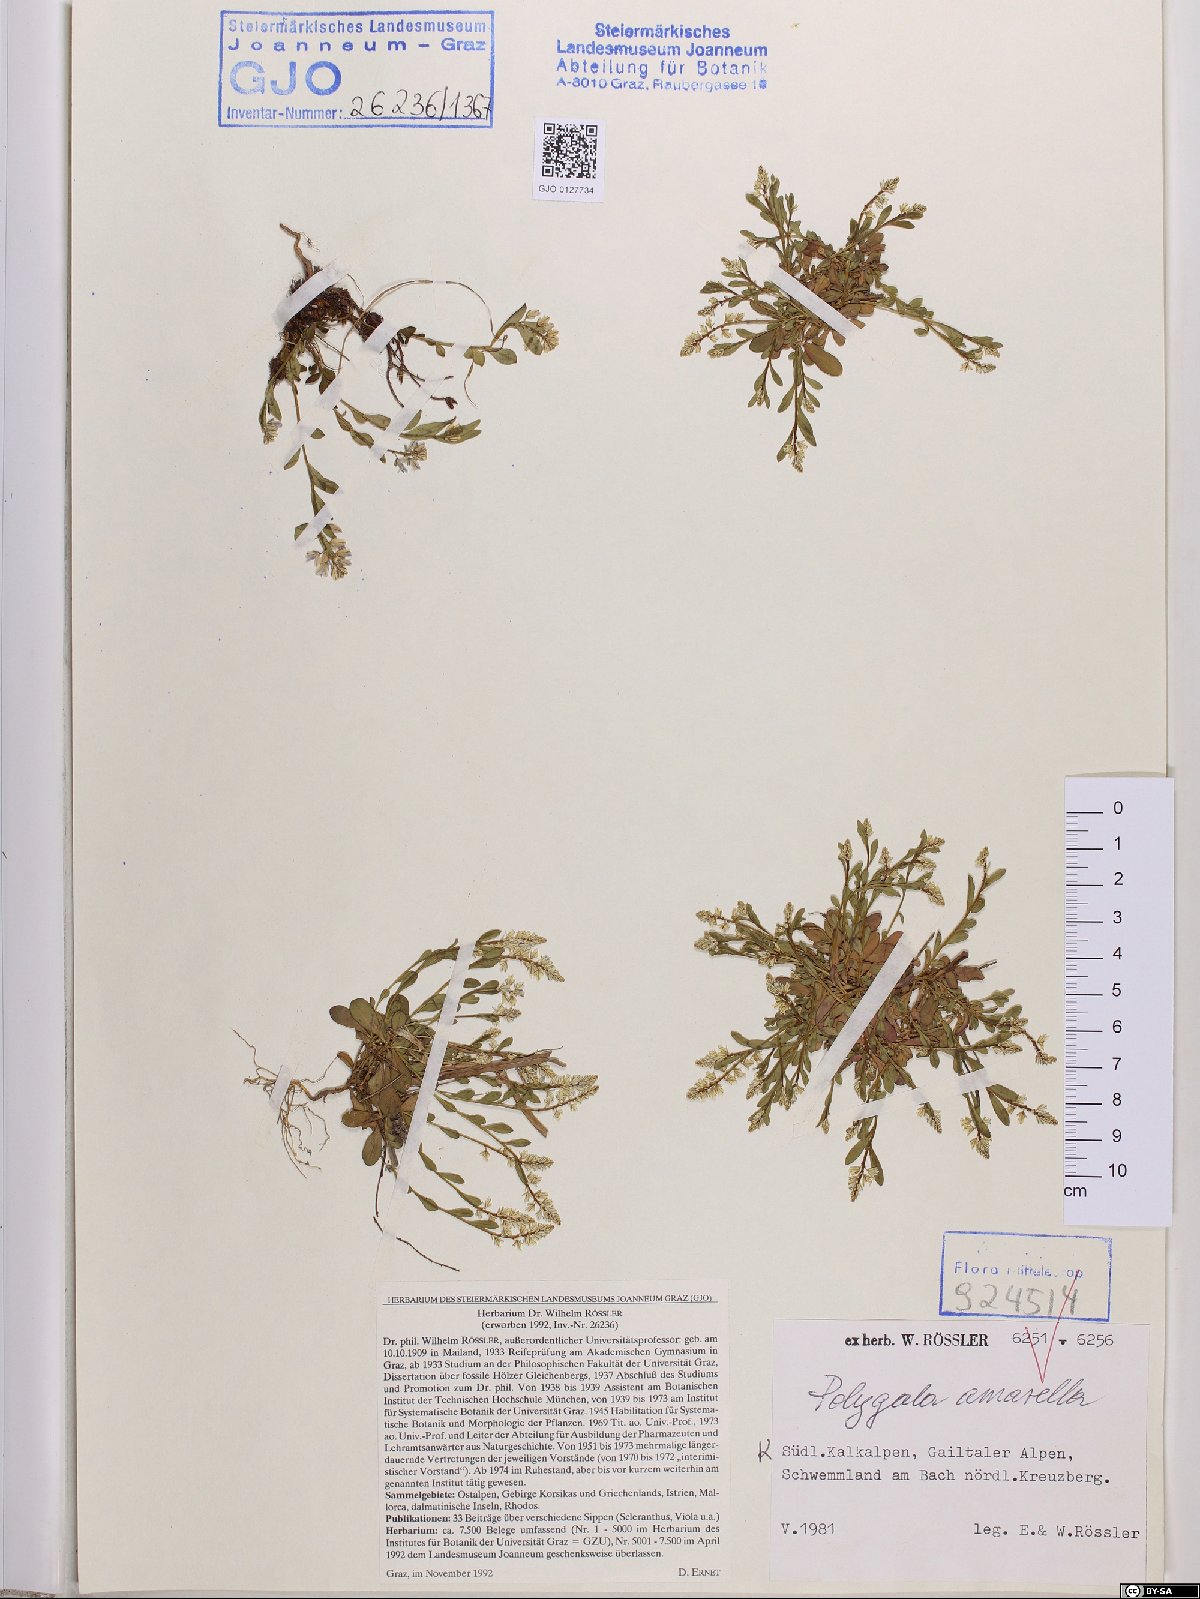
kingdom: Plantae
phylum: Tracheophyta
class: Magnoliopsida
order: Fabales
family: Polygalaceae
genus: Polygala
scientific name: Polygala amarella
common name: Dwarf milkwort
